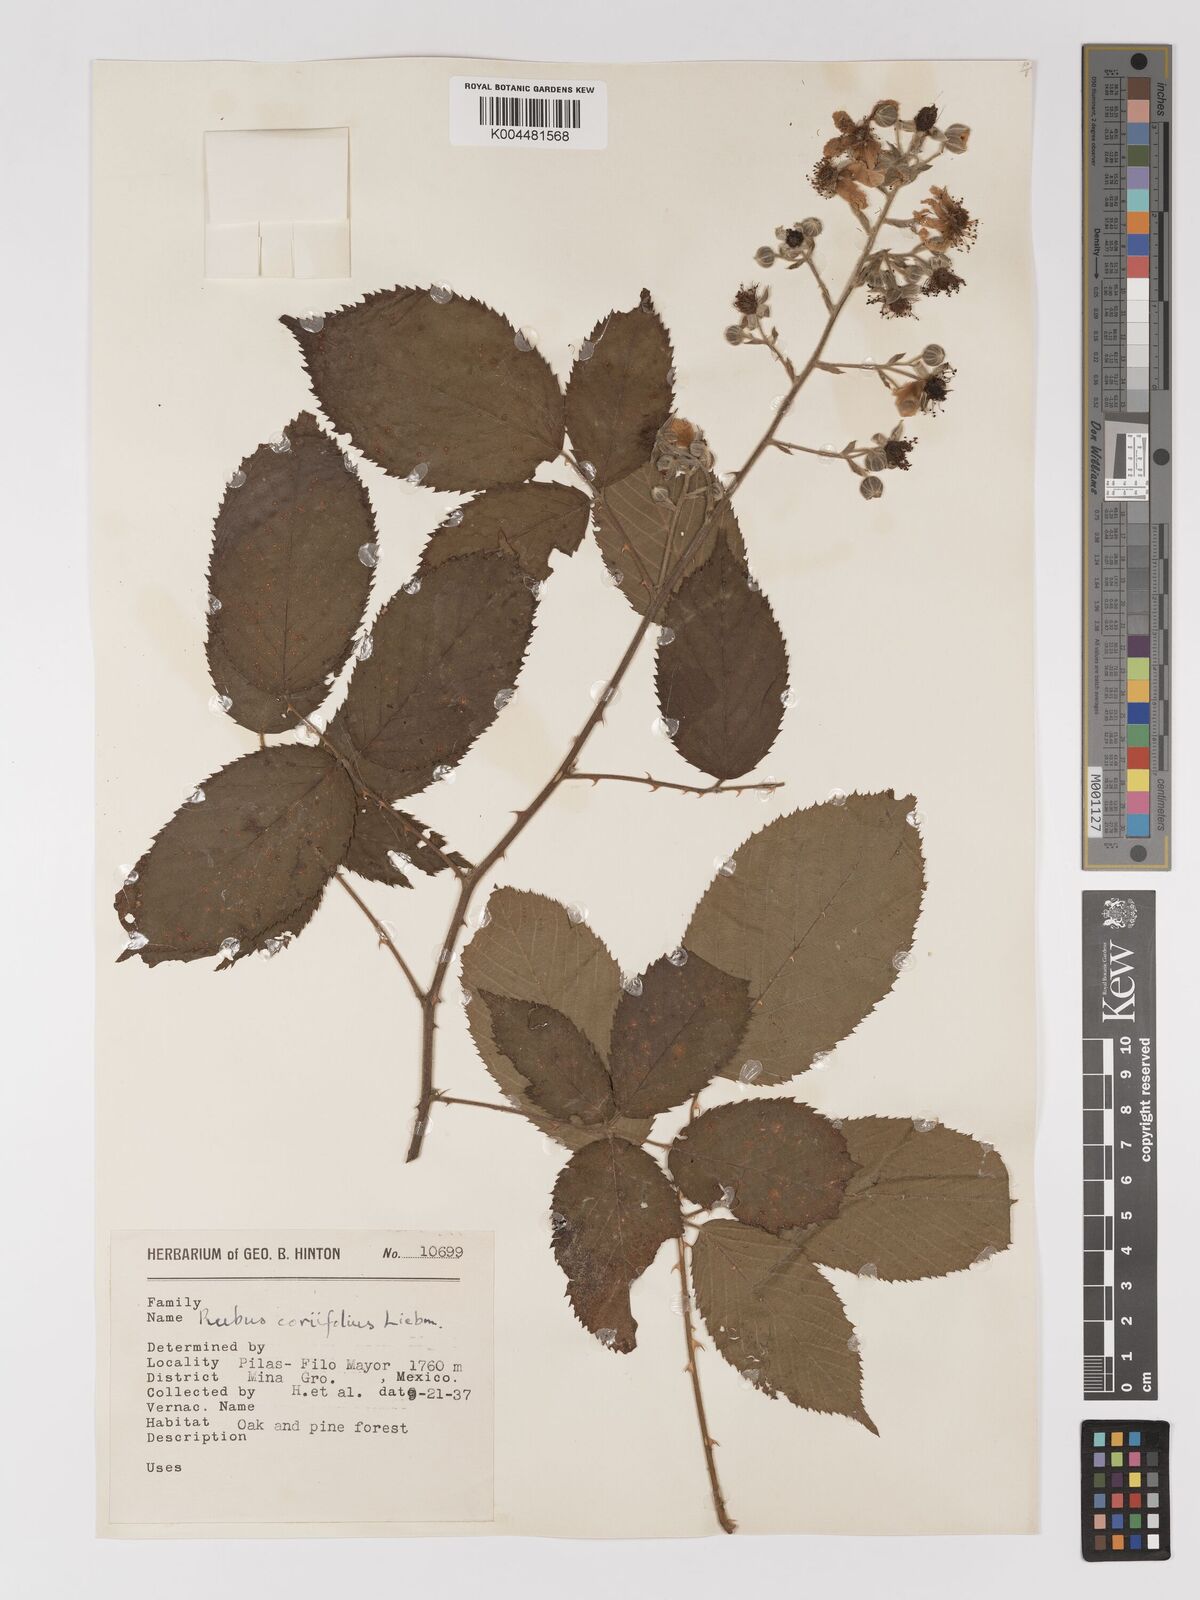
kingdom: Plantae
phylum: Tracheophyta
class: Magnoliopsida
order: Rosales
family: Rosaceae
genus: Rubus
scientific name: Rubus coriifolius
